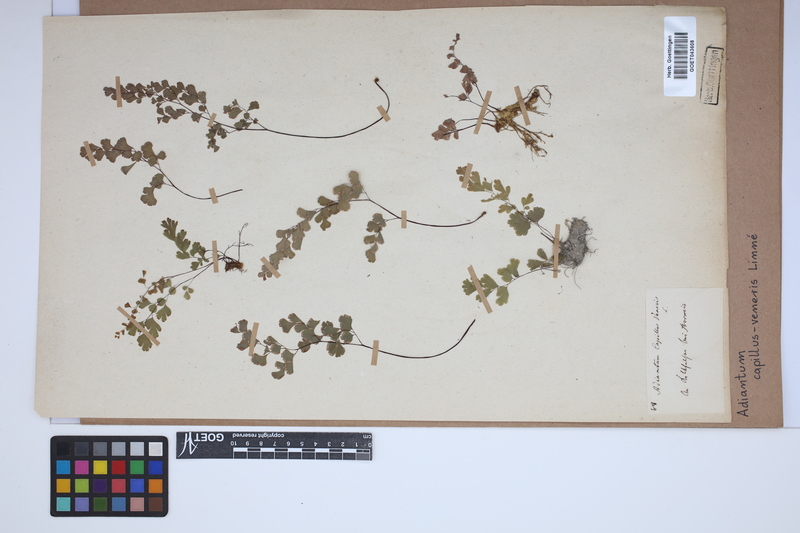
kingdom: Plantae
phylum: Tracheophyta
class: Polypodiopsida
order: Polypodiales
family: Pteridaceae
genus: Adiantum
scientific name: Adiantum capillus-veneris
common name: Maidenhair fern
